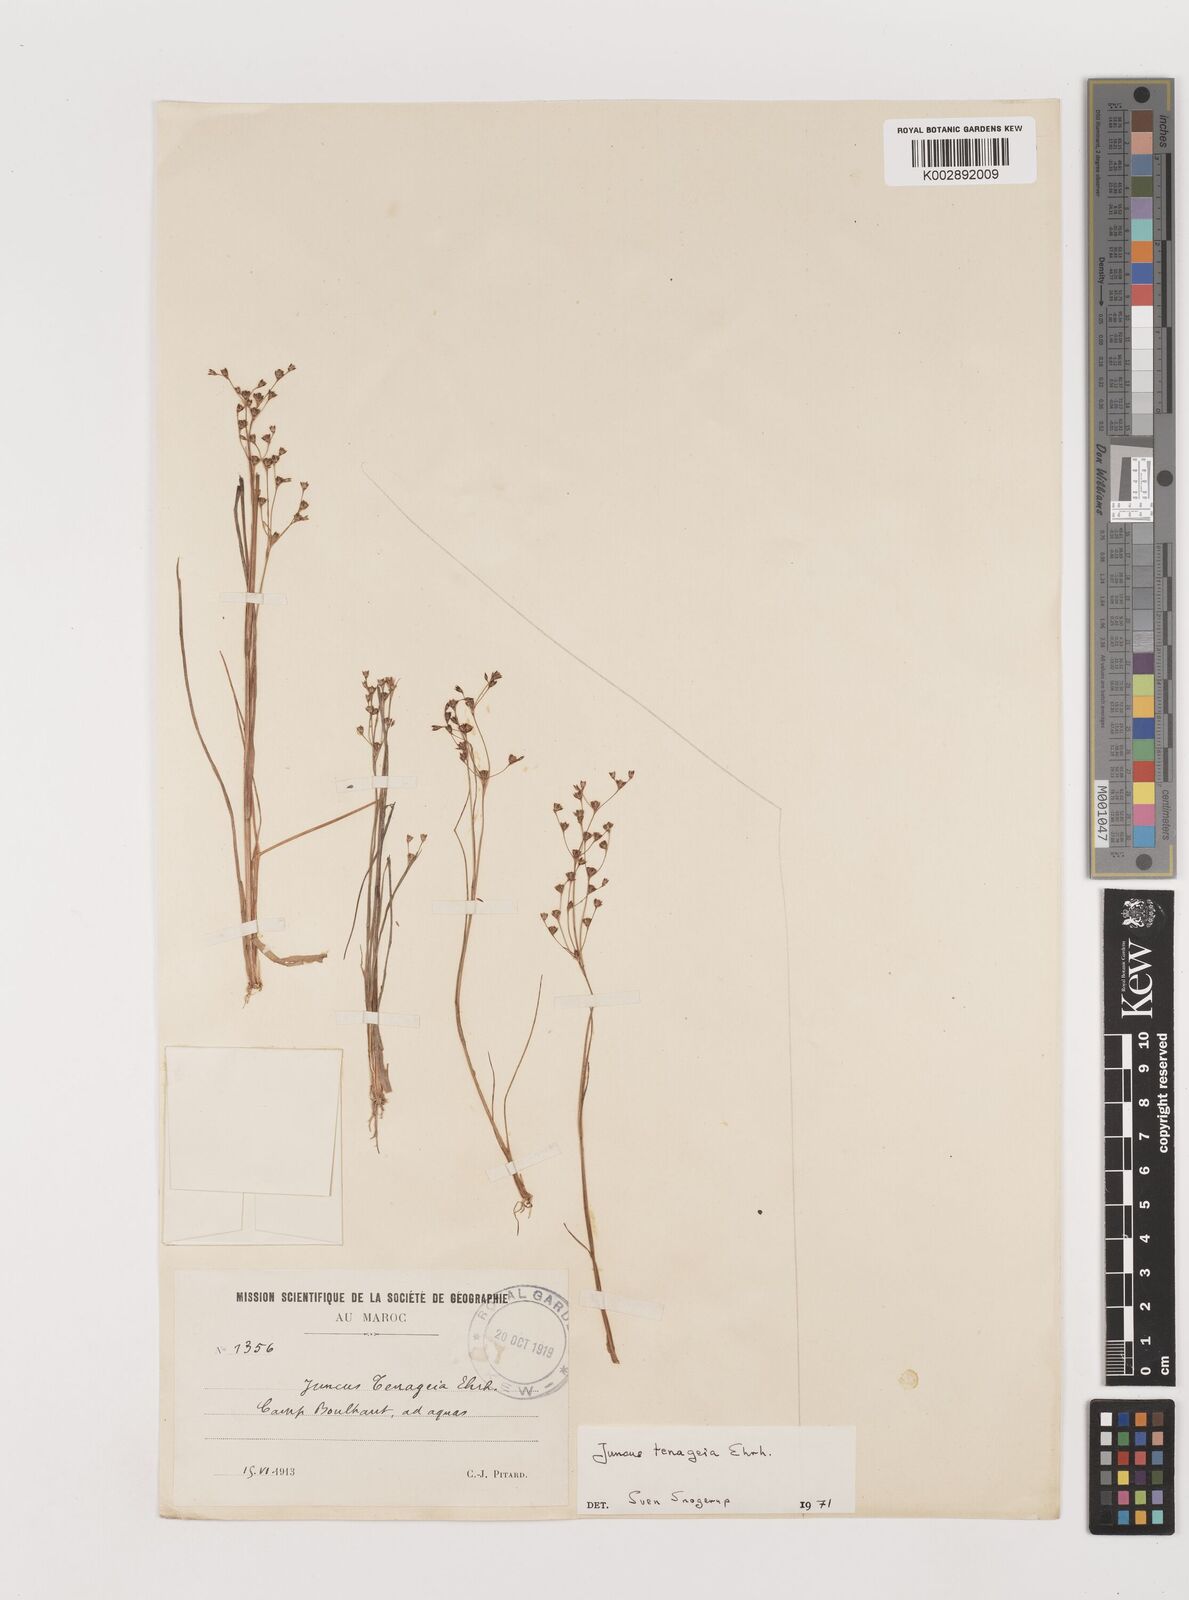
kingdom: Plantae
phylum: Tracheophyta
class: Liliopsida
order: Poales
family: Juncaceae
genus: Juncus
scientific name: Juncus tenageia
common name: Sand rush
